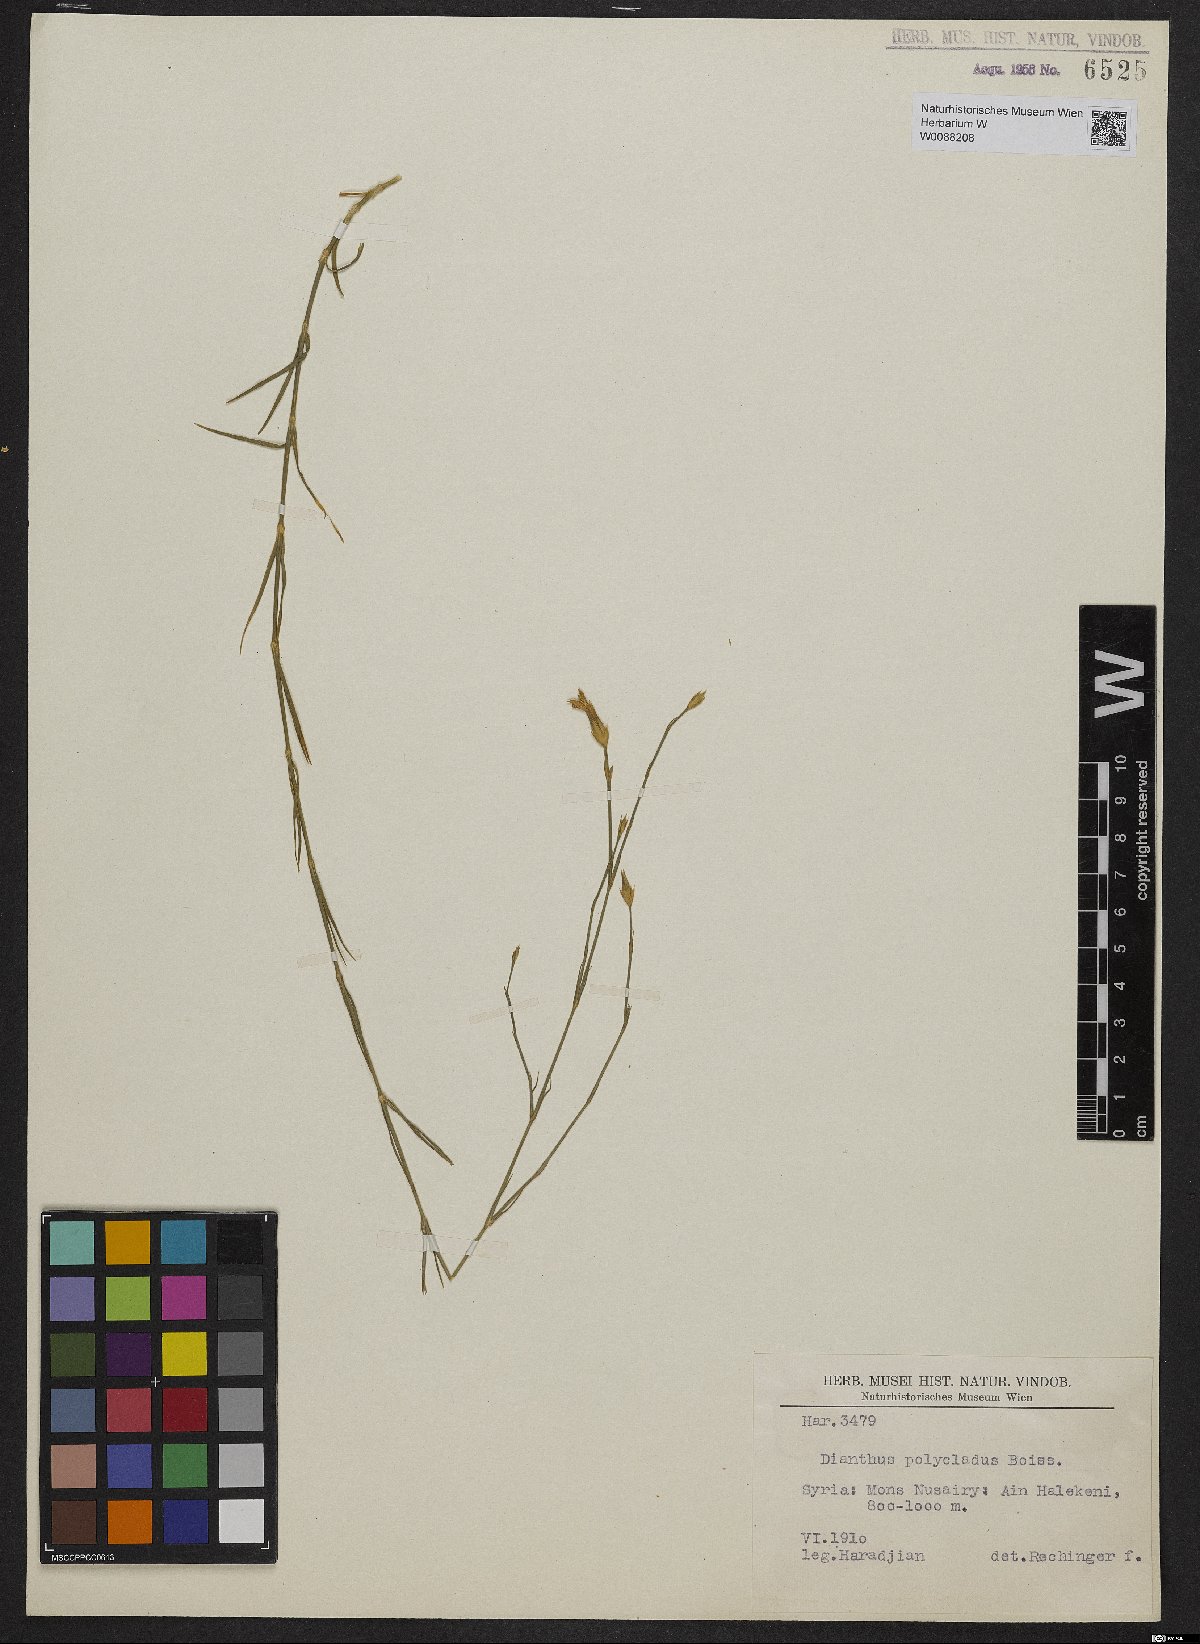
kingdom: Plantae
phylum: Tracheophyta
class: Magnoliopsida
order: Caryophyllales
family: Caryophyllaceae
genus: Dianthus
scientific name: Dianthus strictus
